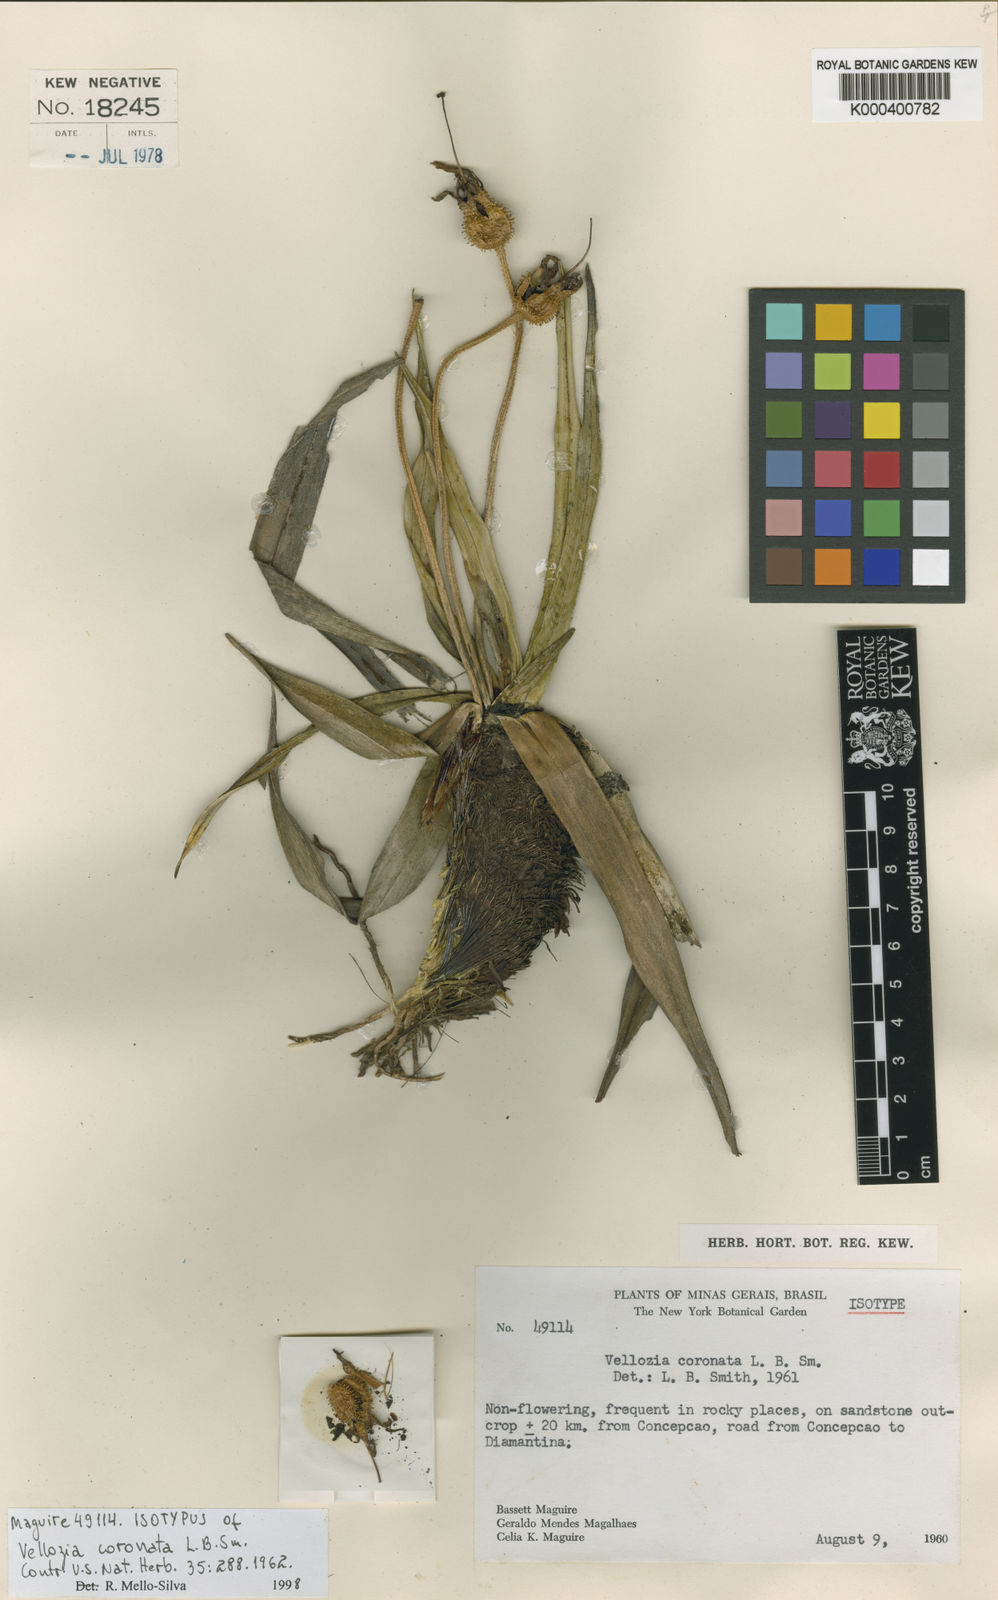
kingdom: Plantae
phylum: Tracheophyta
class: Liliopsida
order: Pandanales
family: Velloziaceae
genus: Vellozia
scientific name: Vellozia coronata
